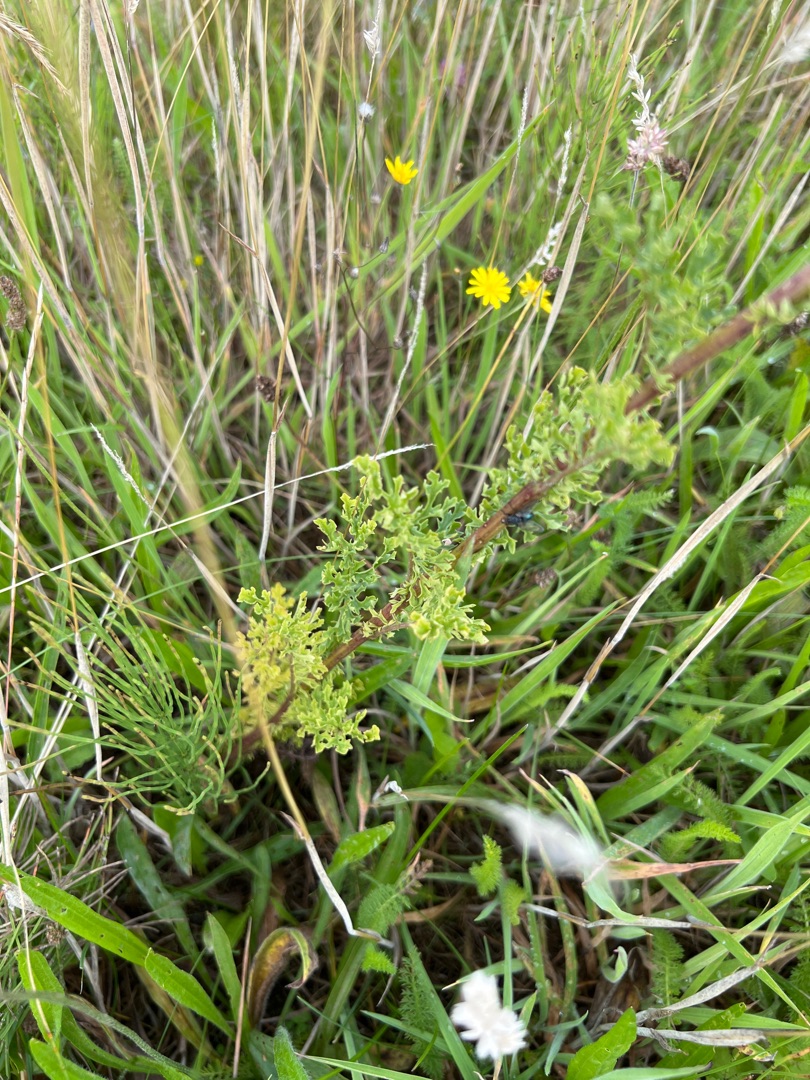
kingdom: Plantae
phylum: Tracheophyta
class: Magnoliopsida
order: Asterales
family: Asteraceae
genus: Jacobaea
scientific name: Jacobaea vulgaris
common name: Eng-brandbæger
